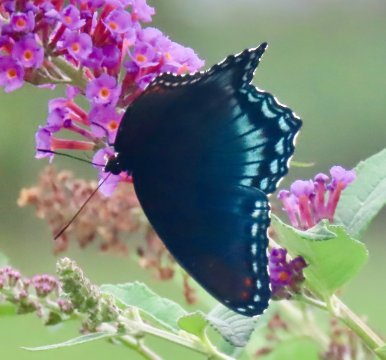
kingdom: Animalia
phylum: Arthropoda
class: Insecta
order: Lepidoptera
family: Nymphalidae
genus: Limenitis
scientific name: Limenitis arthemis
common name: Red-spotted Admiral
